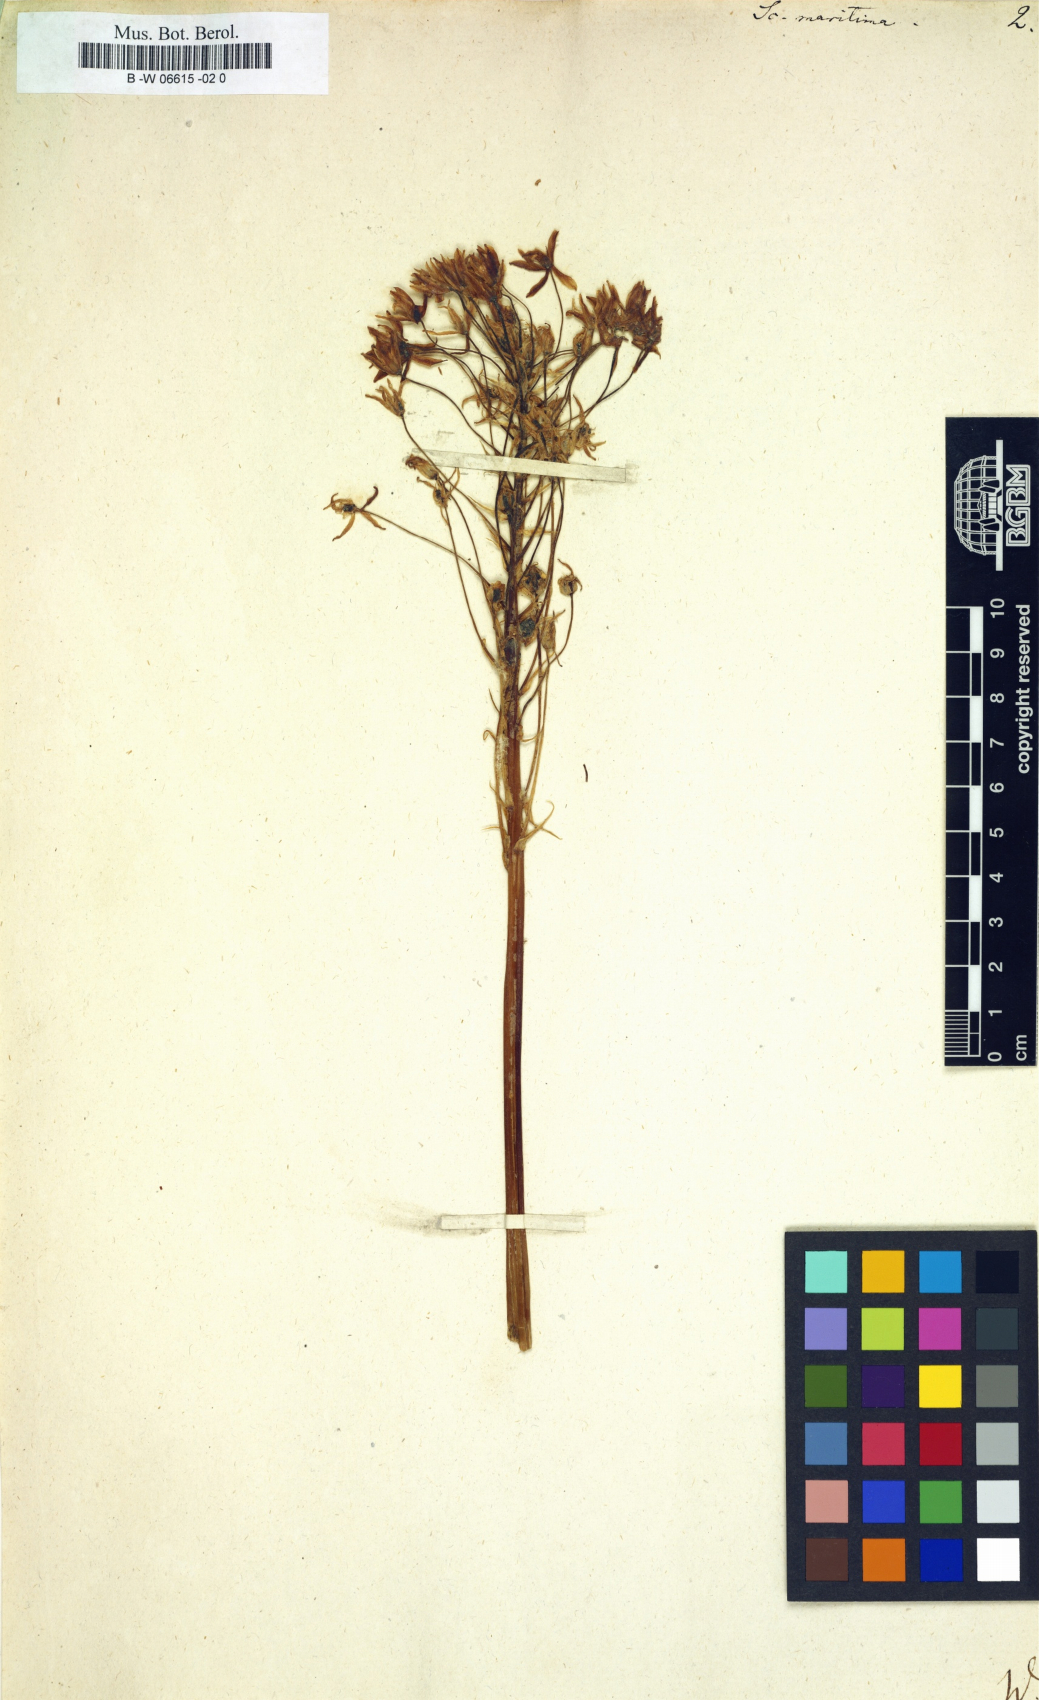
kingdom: Plantae
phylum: Tracheophyta
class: Liliopsida
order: Asparagales
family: Asparagaceae
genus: Drimia
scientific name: Drimia maritima
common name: Maritime squill
